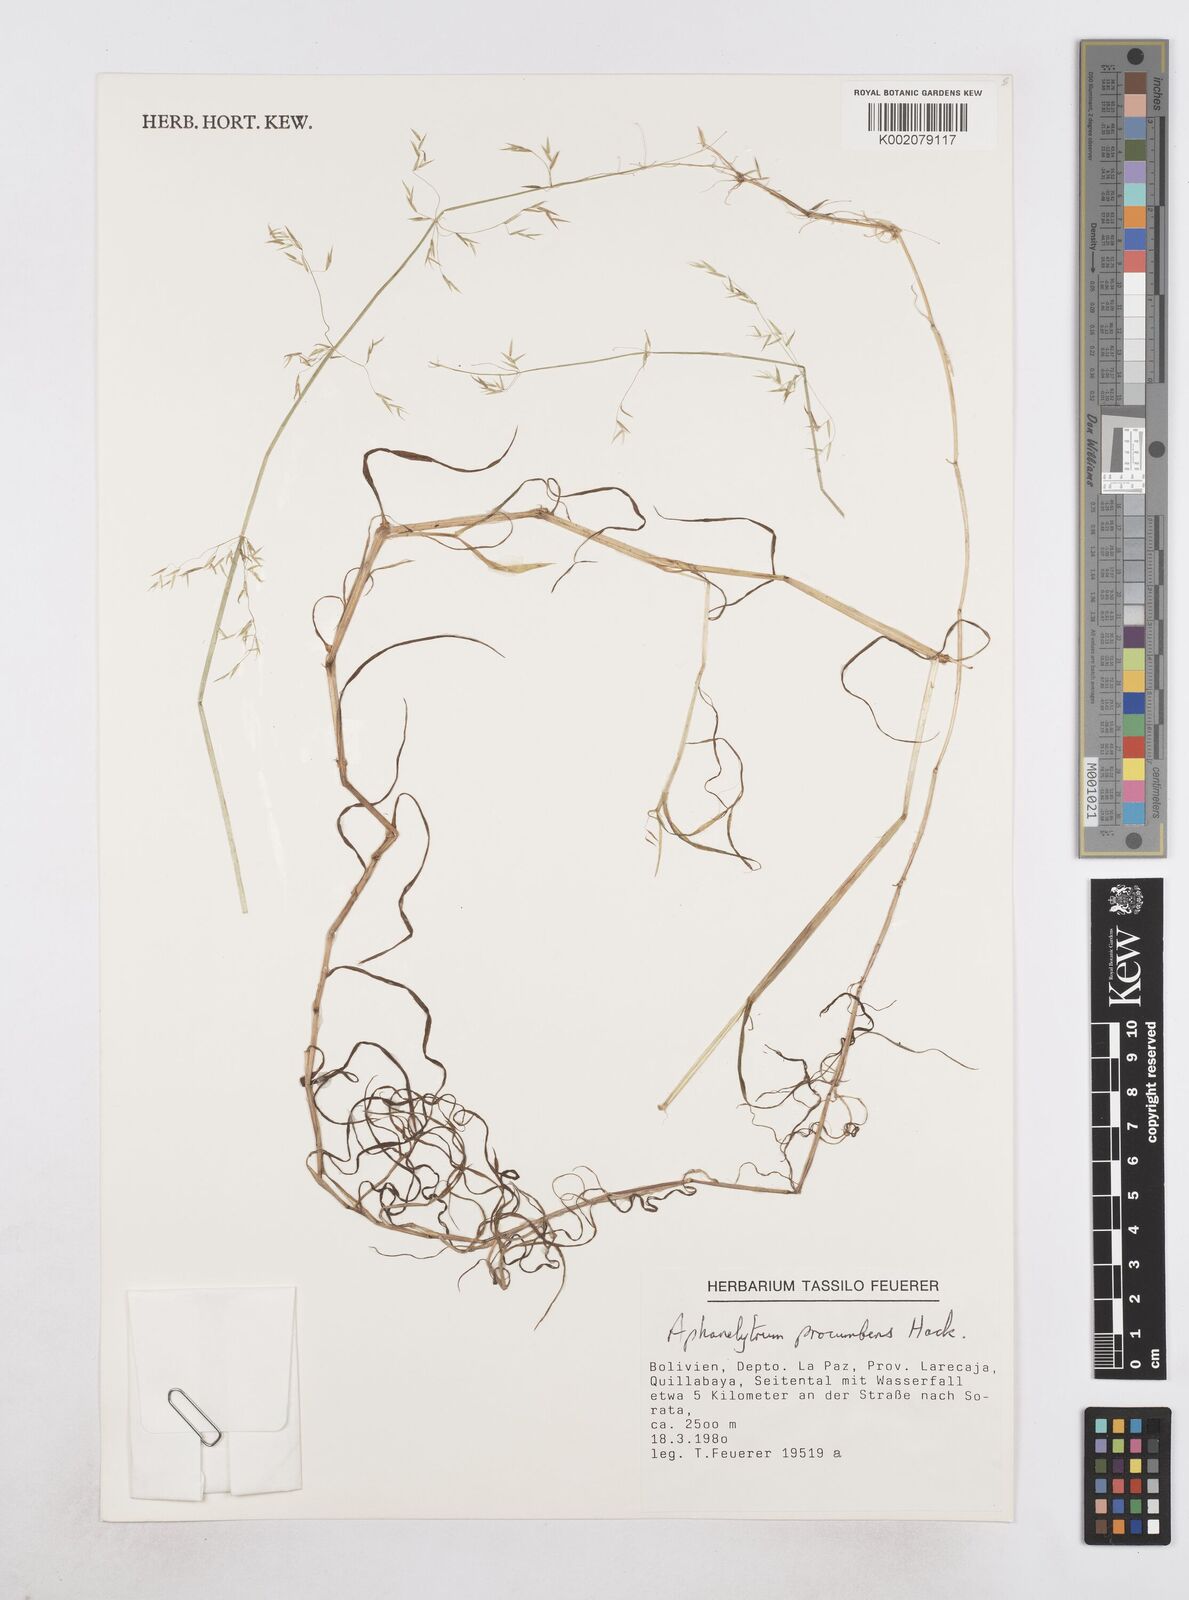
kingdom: Plantae
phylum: Tracheophyta
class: Liliopsida
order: Poales
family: Poaceae
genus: Poa
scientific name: Poa hitchcockiana
